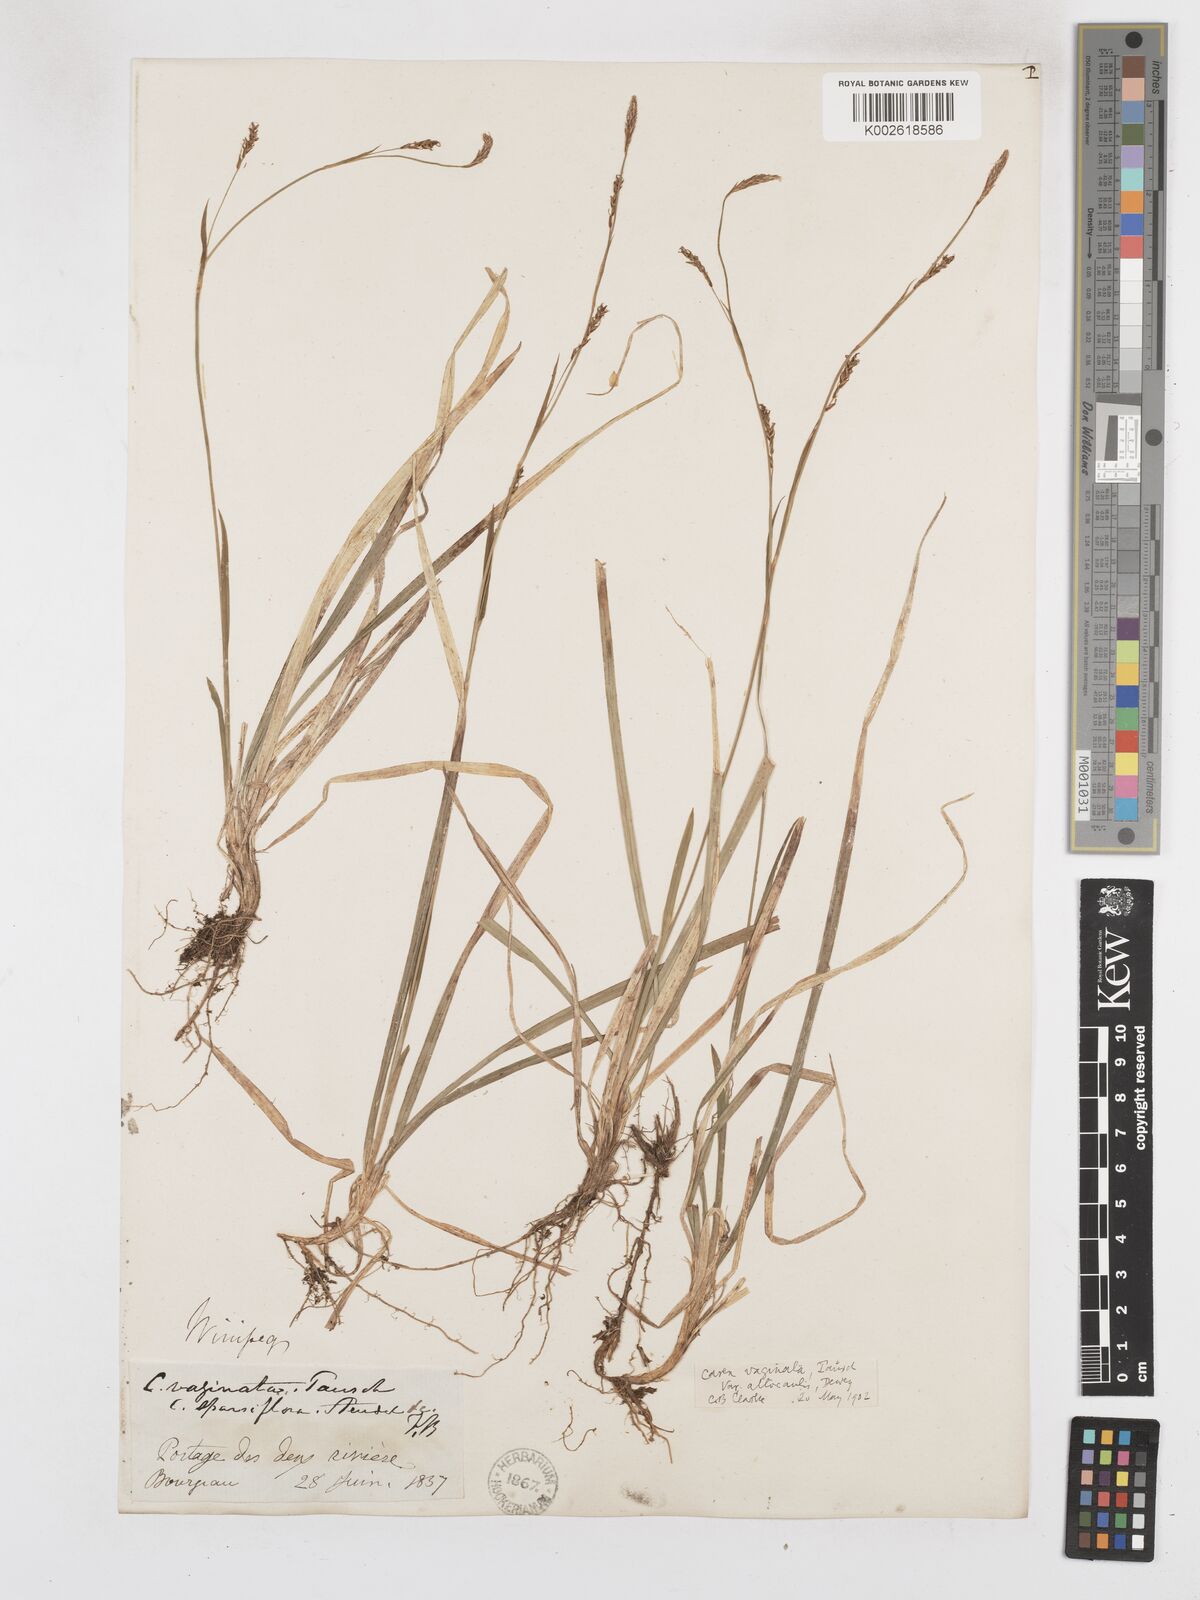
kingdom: Plantae
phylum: Tracheophyta
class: Liliopsida
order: Poales
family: Cyperaceae
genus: Carex
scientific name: Carex vaginata
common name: Sheathed sedge
